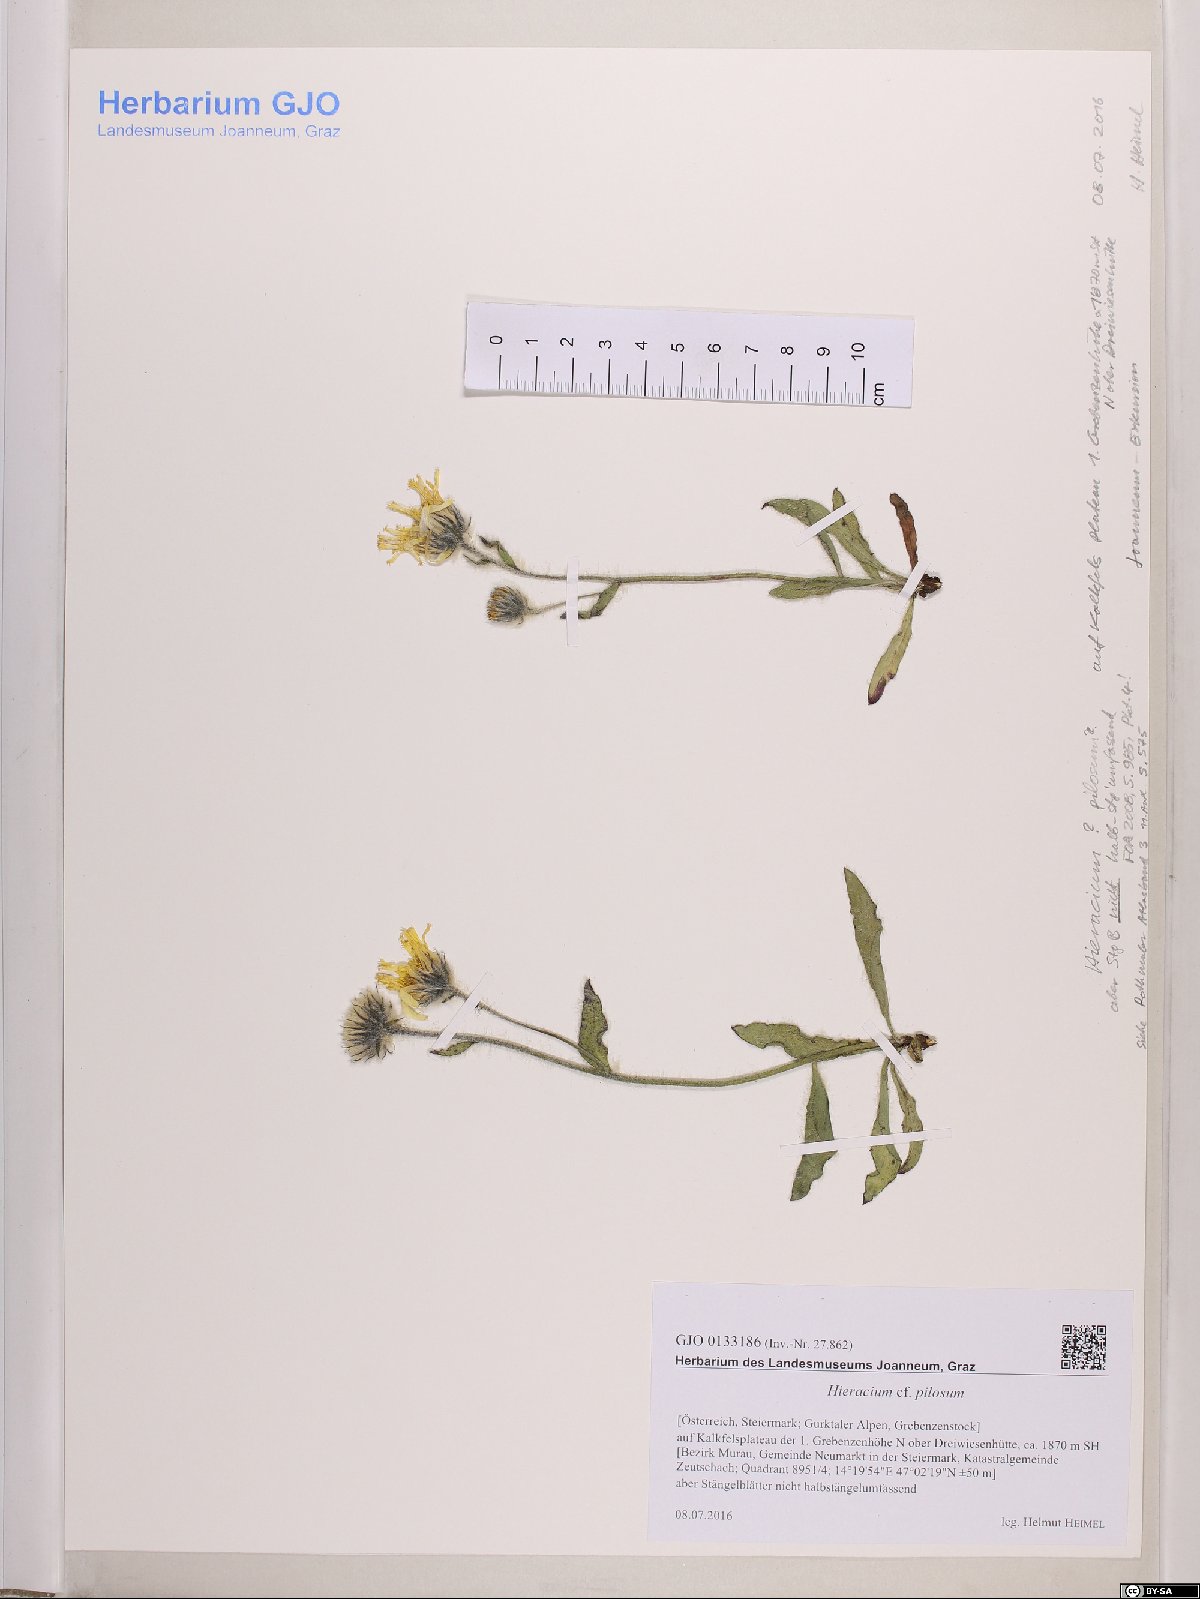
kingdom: Plantae
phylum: Tracheophyta
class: Magnoliopsida
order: Asterales
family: Asteraceae
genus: Hieracium
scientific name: Hieracium pilosum
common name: Fimbriate-pitted hawkweed
